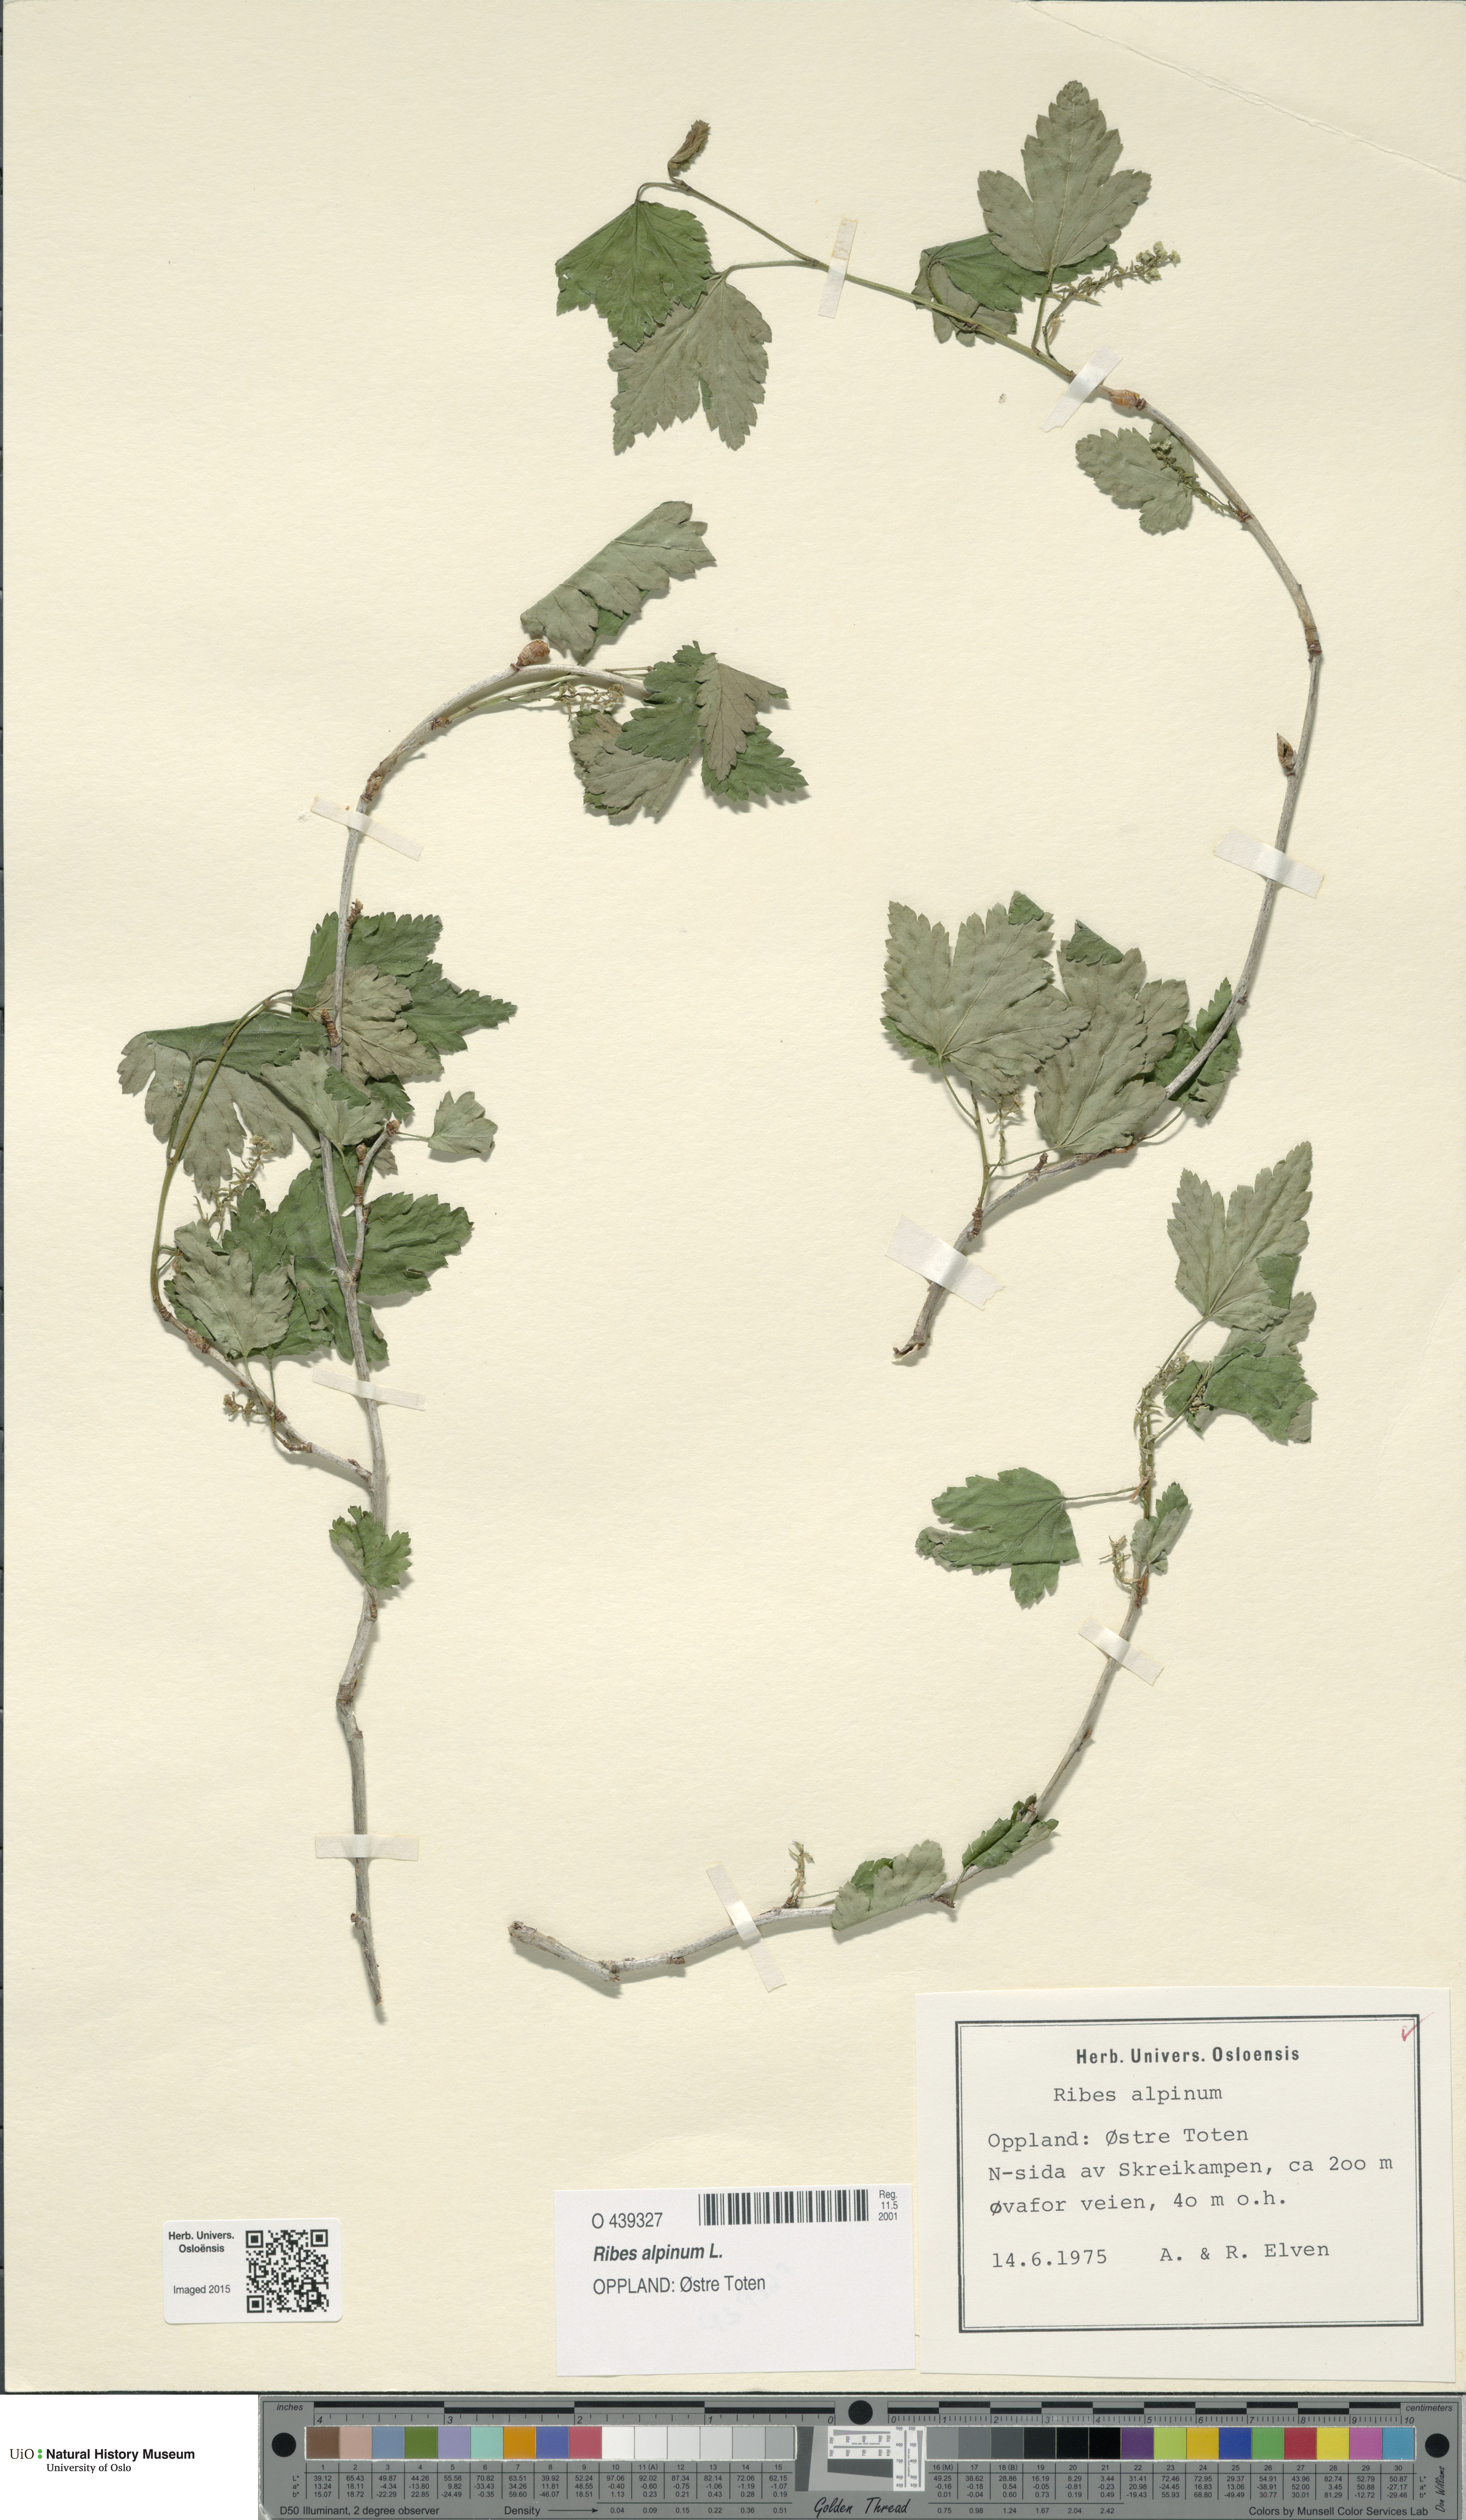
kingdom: Plantae
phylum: Tracheophyta
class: Magnoliopsida
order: Saxifragales
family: Grossulariaceae
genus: Ribes
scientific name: Ribes alpinum
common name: Alpine currant
